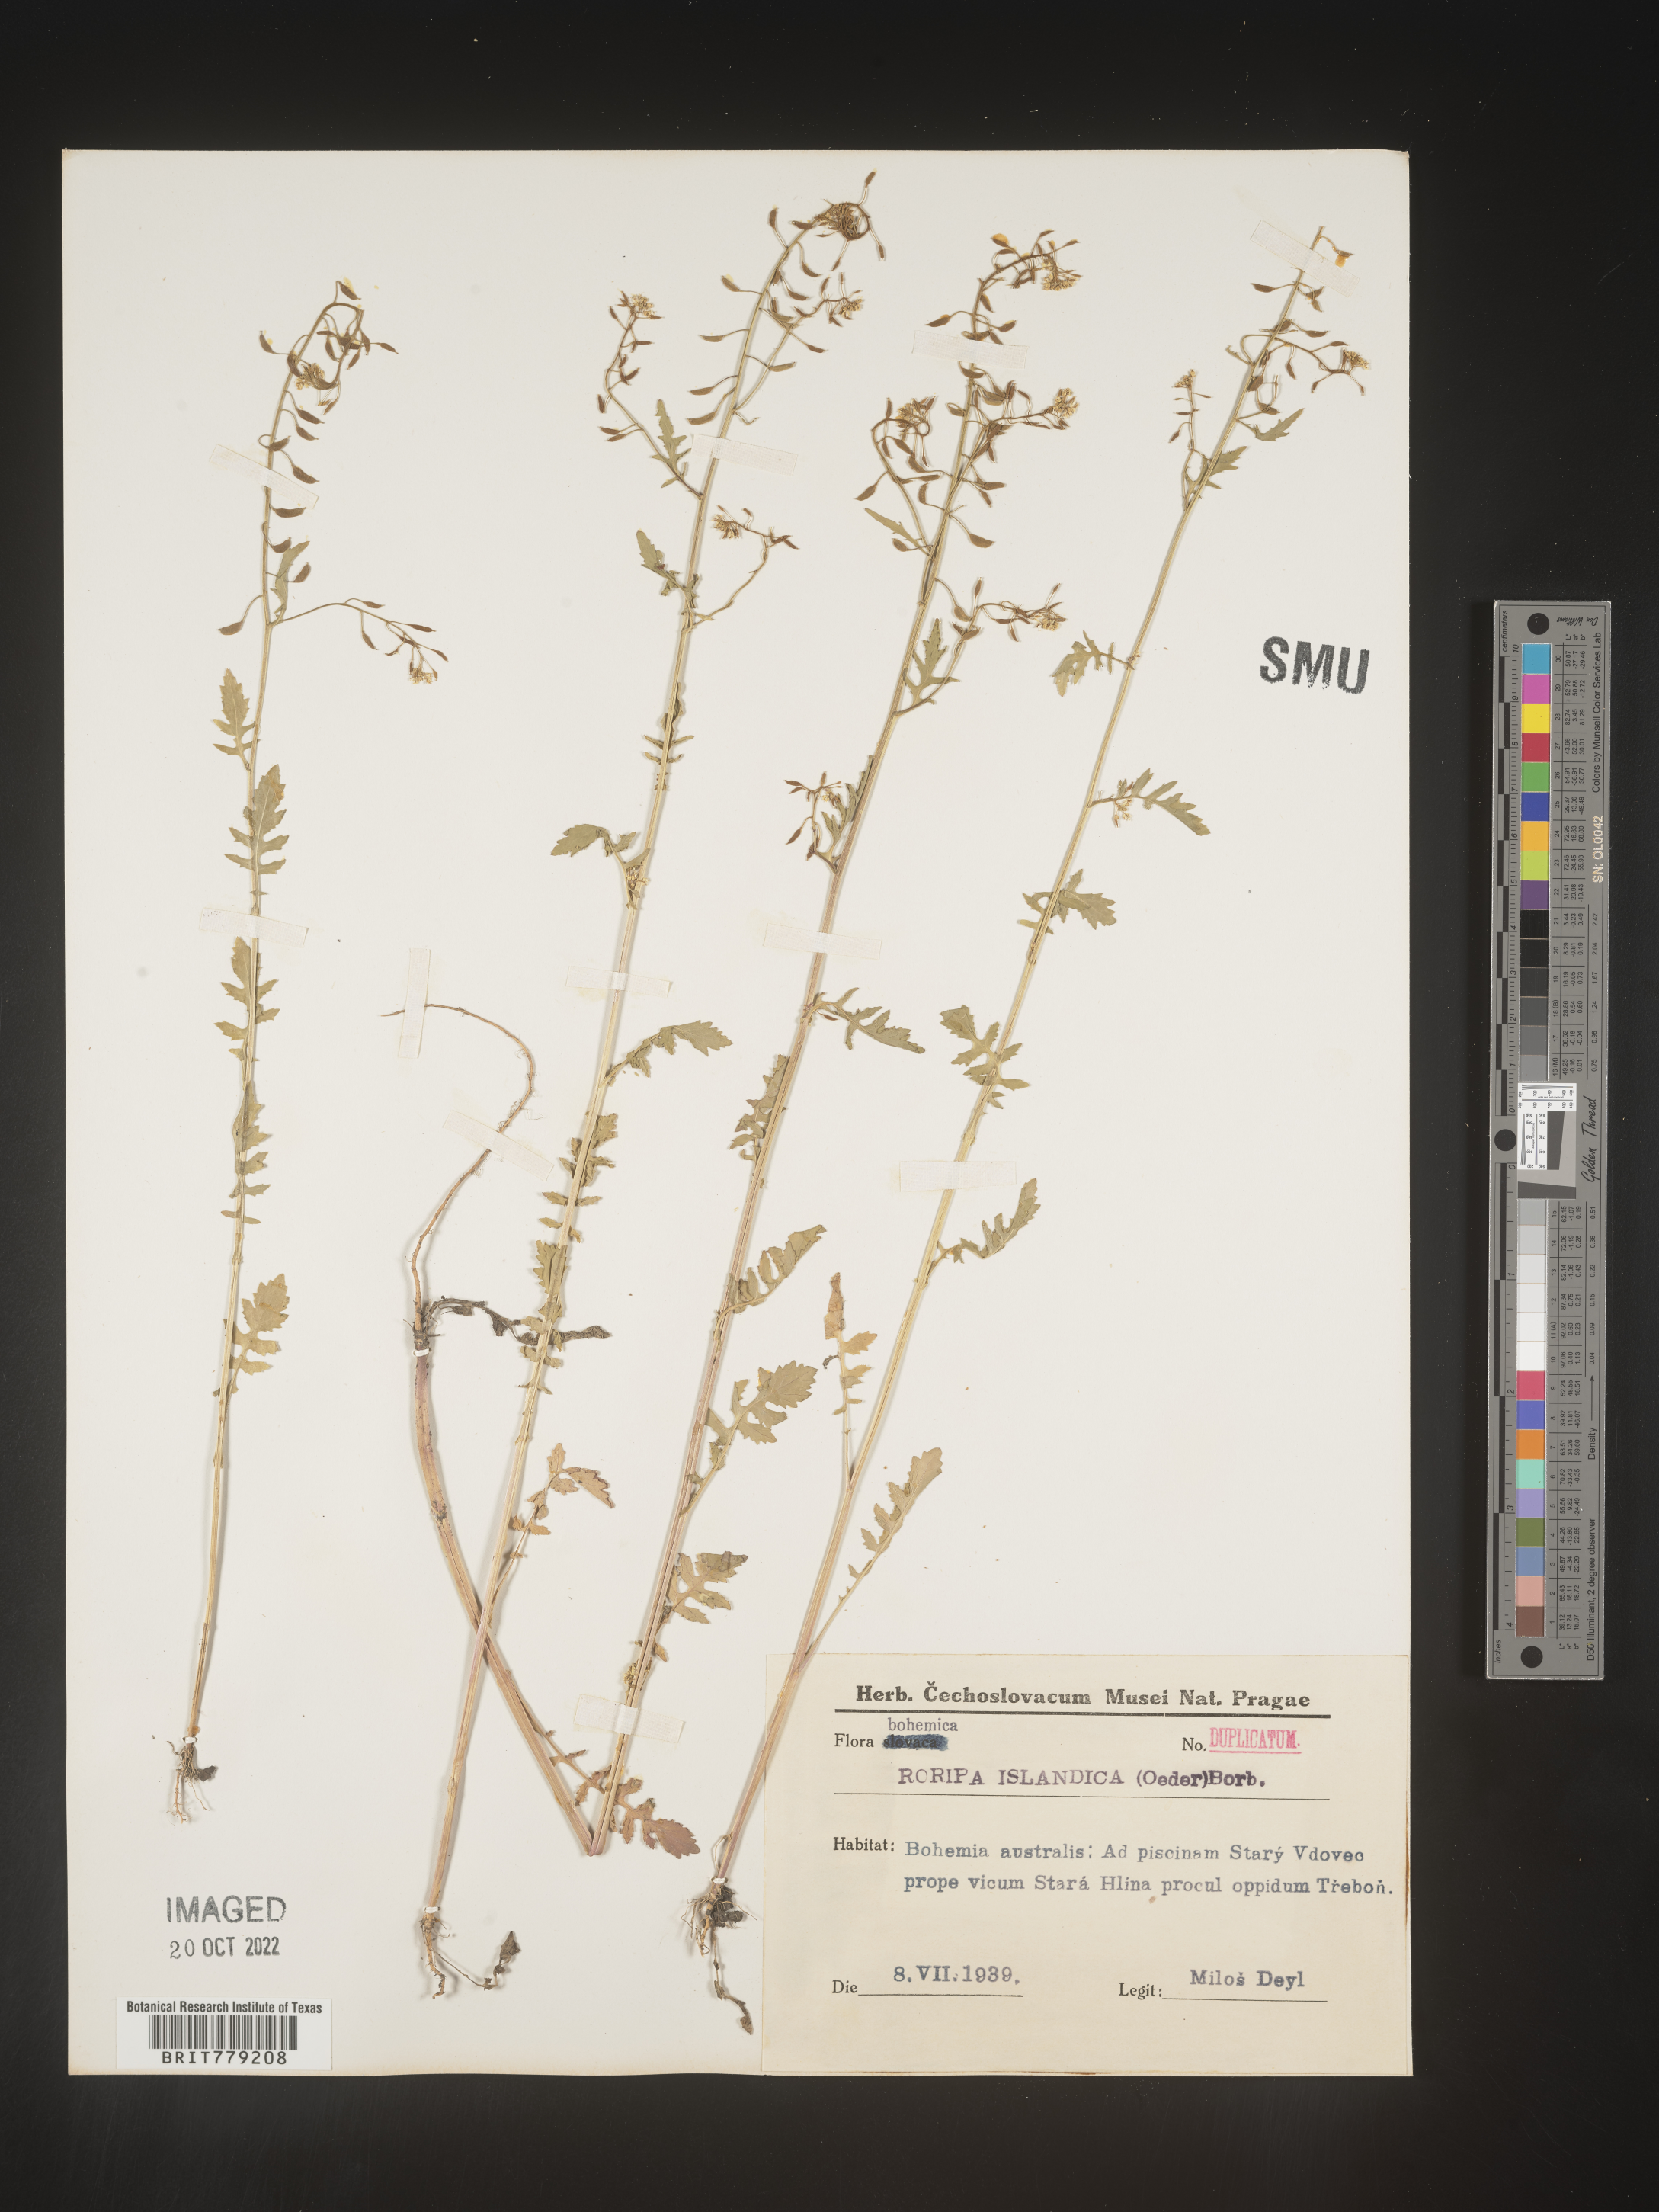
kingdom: Plantae
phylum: Tracheophyta
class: Magnoliopsida
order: Brassicales
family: Brassicaceae
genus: Rorippa
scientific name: Rorippa
